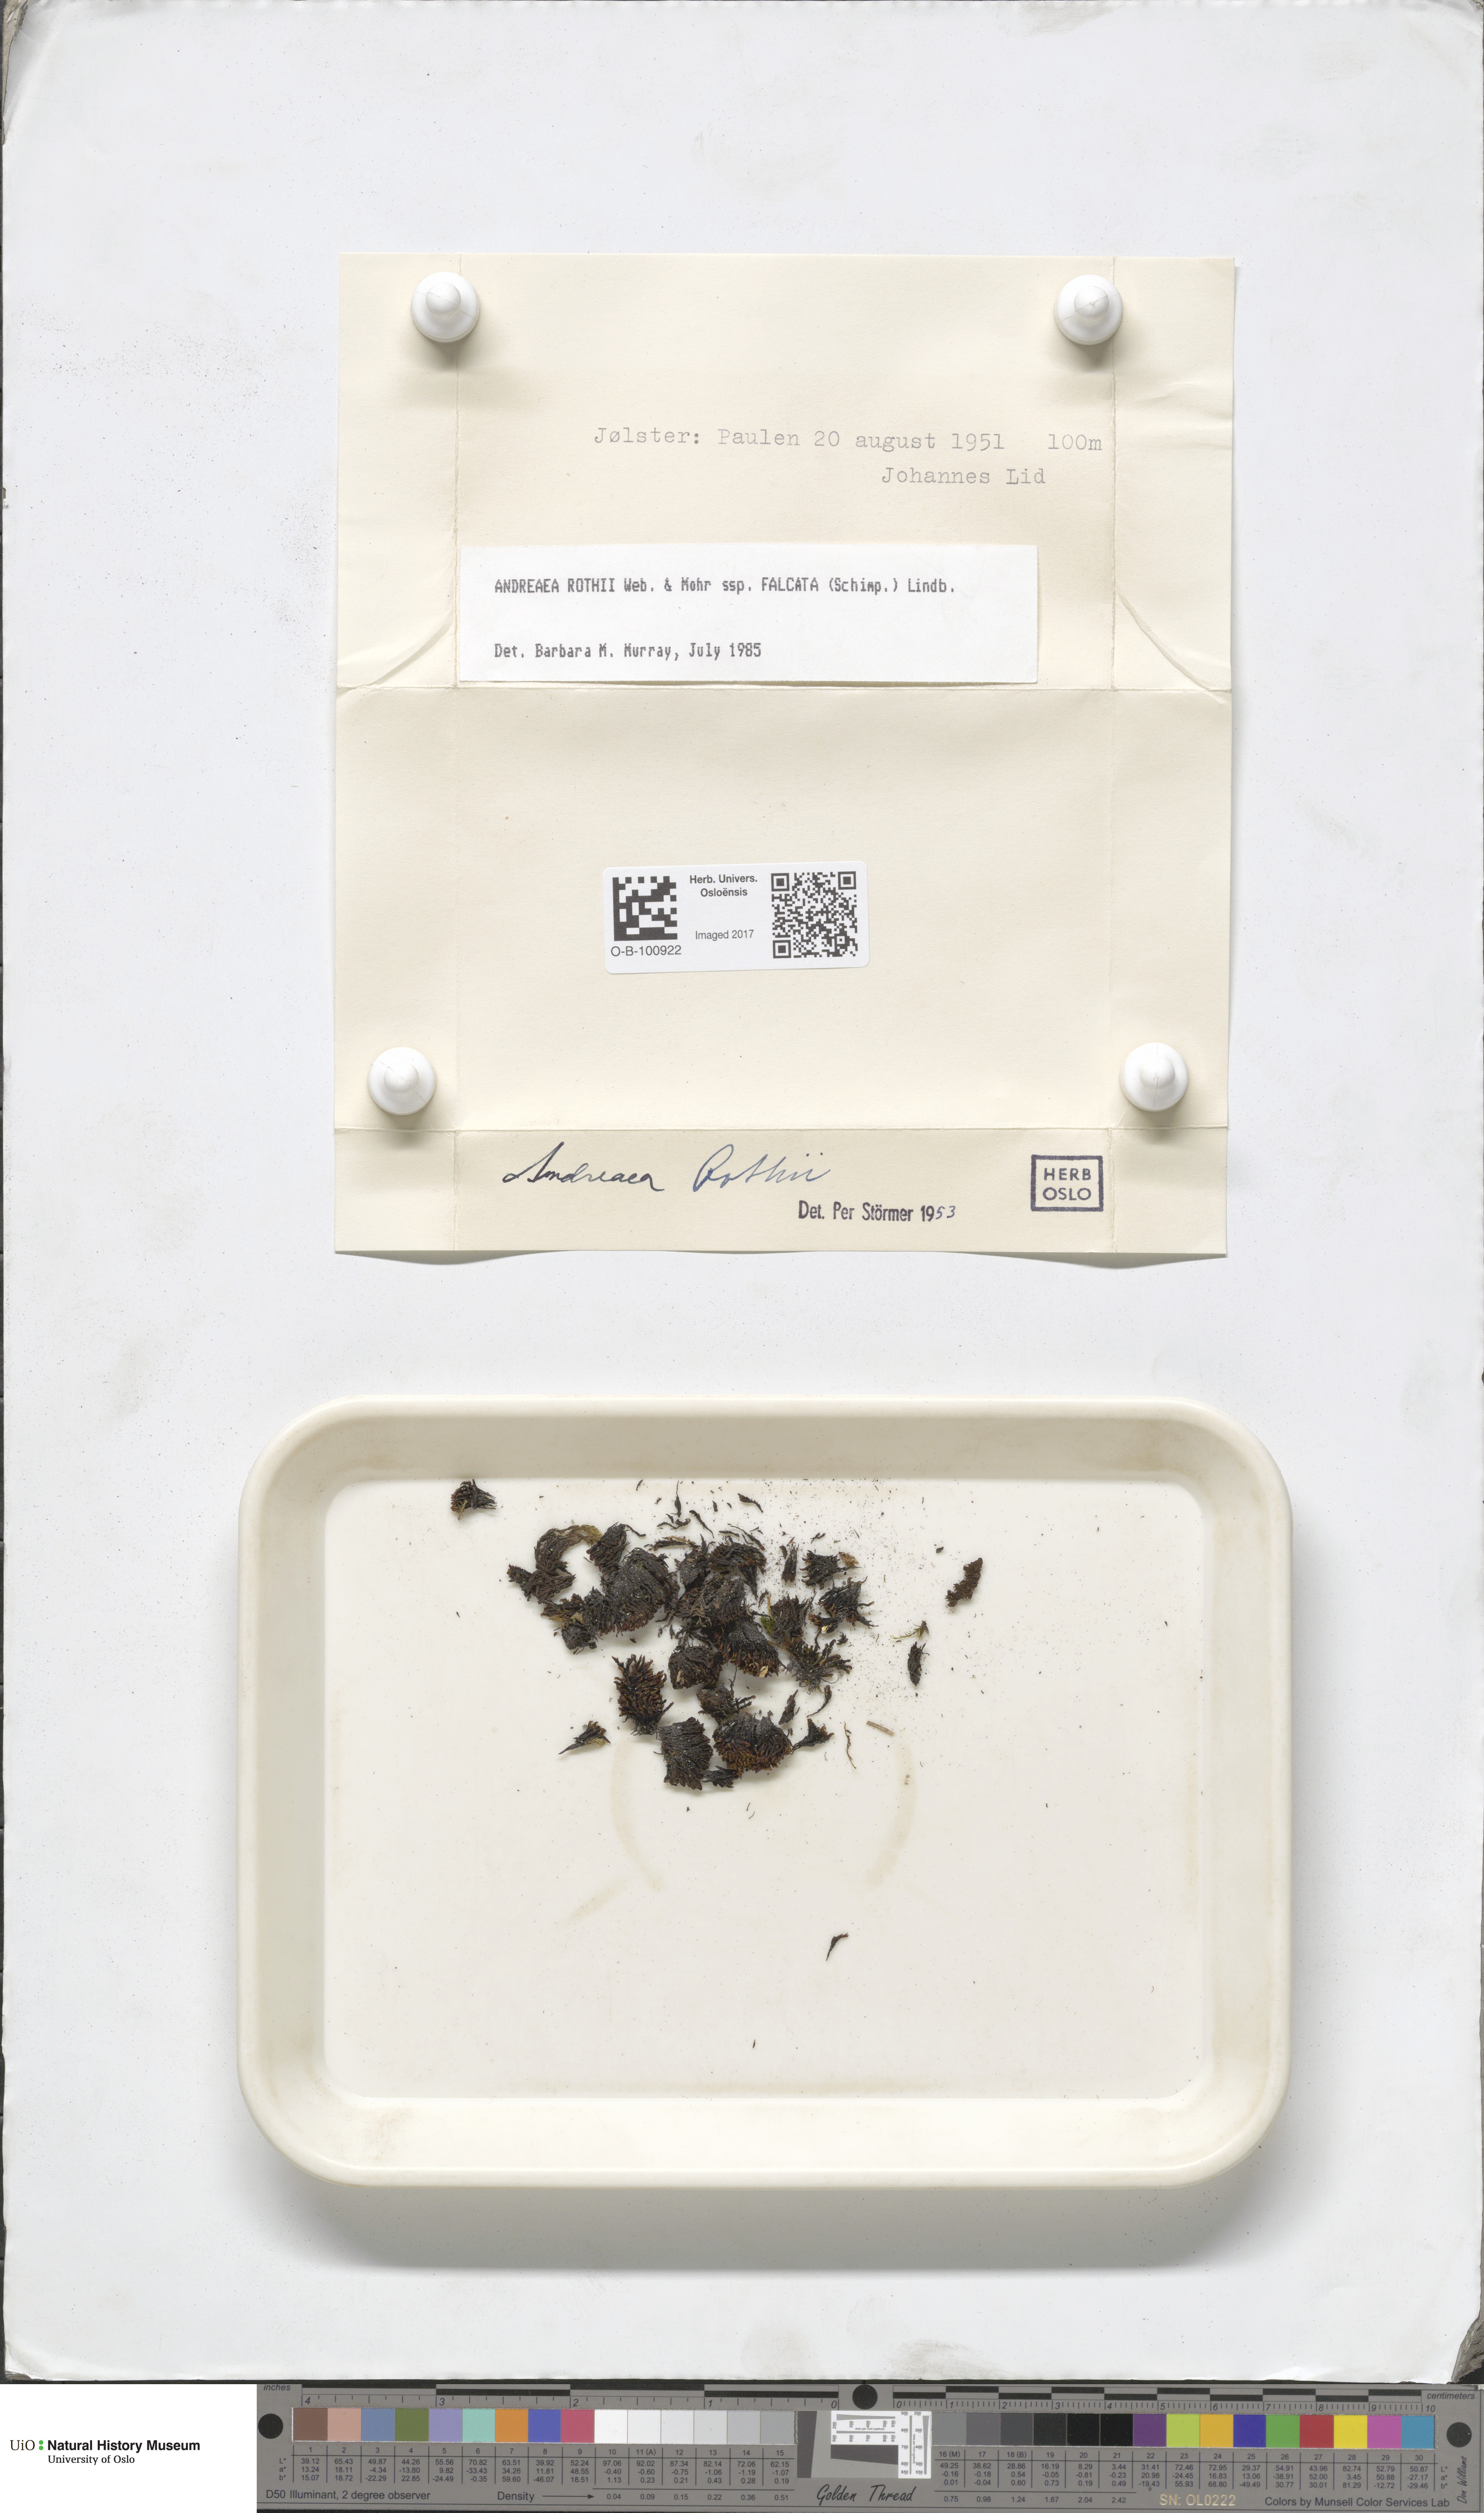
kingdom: Plantae
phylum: Bryophyta
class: Andreaeopsida
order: Andreaeales
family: Andreaeaceae
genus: Andreaea
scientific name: Andreaea rothii
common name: Dusky rock moss
